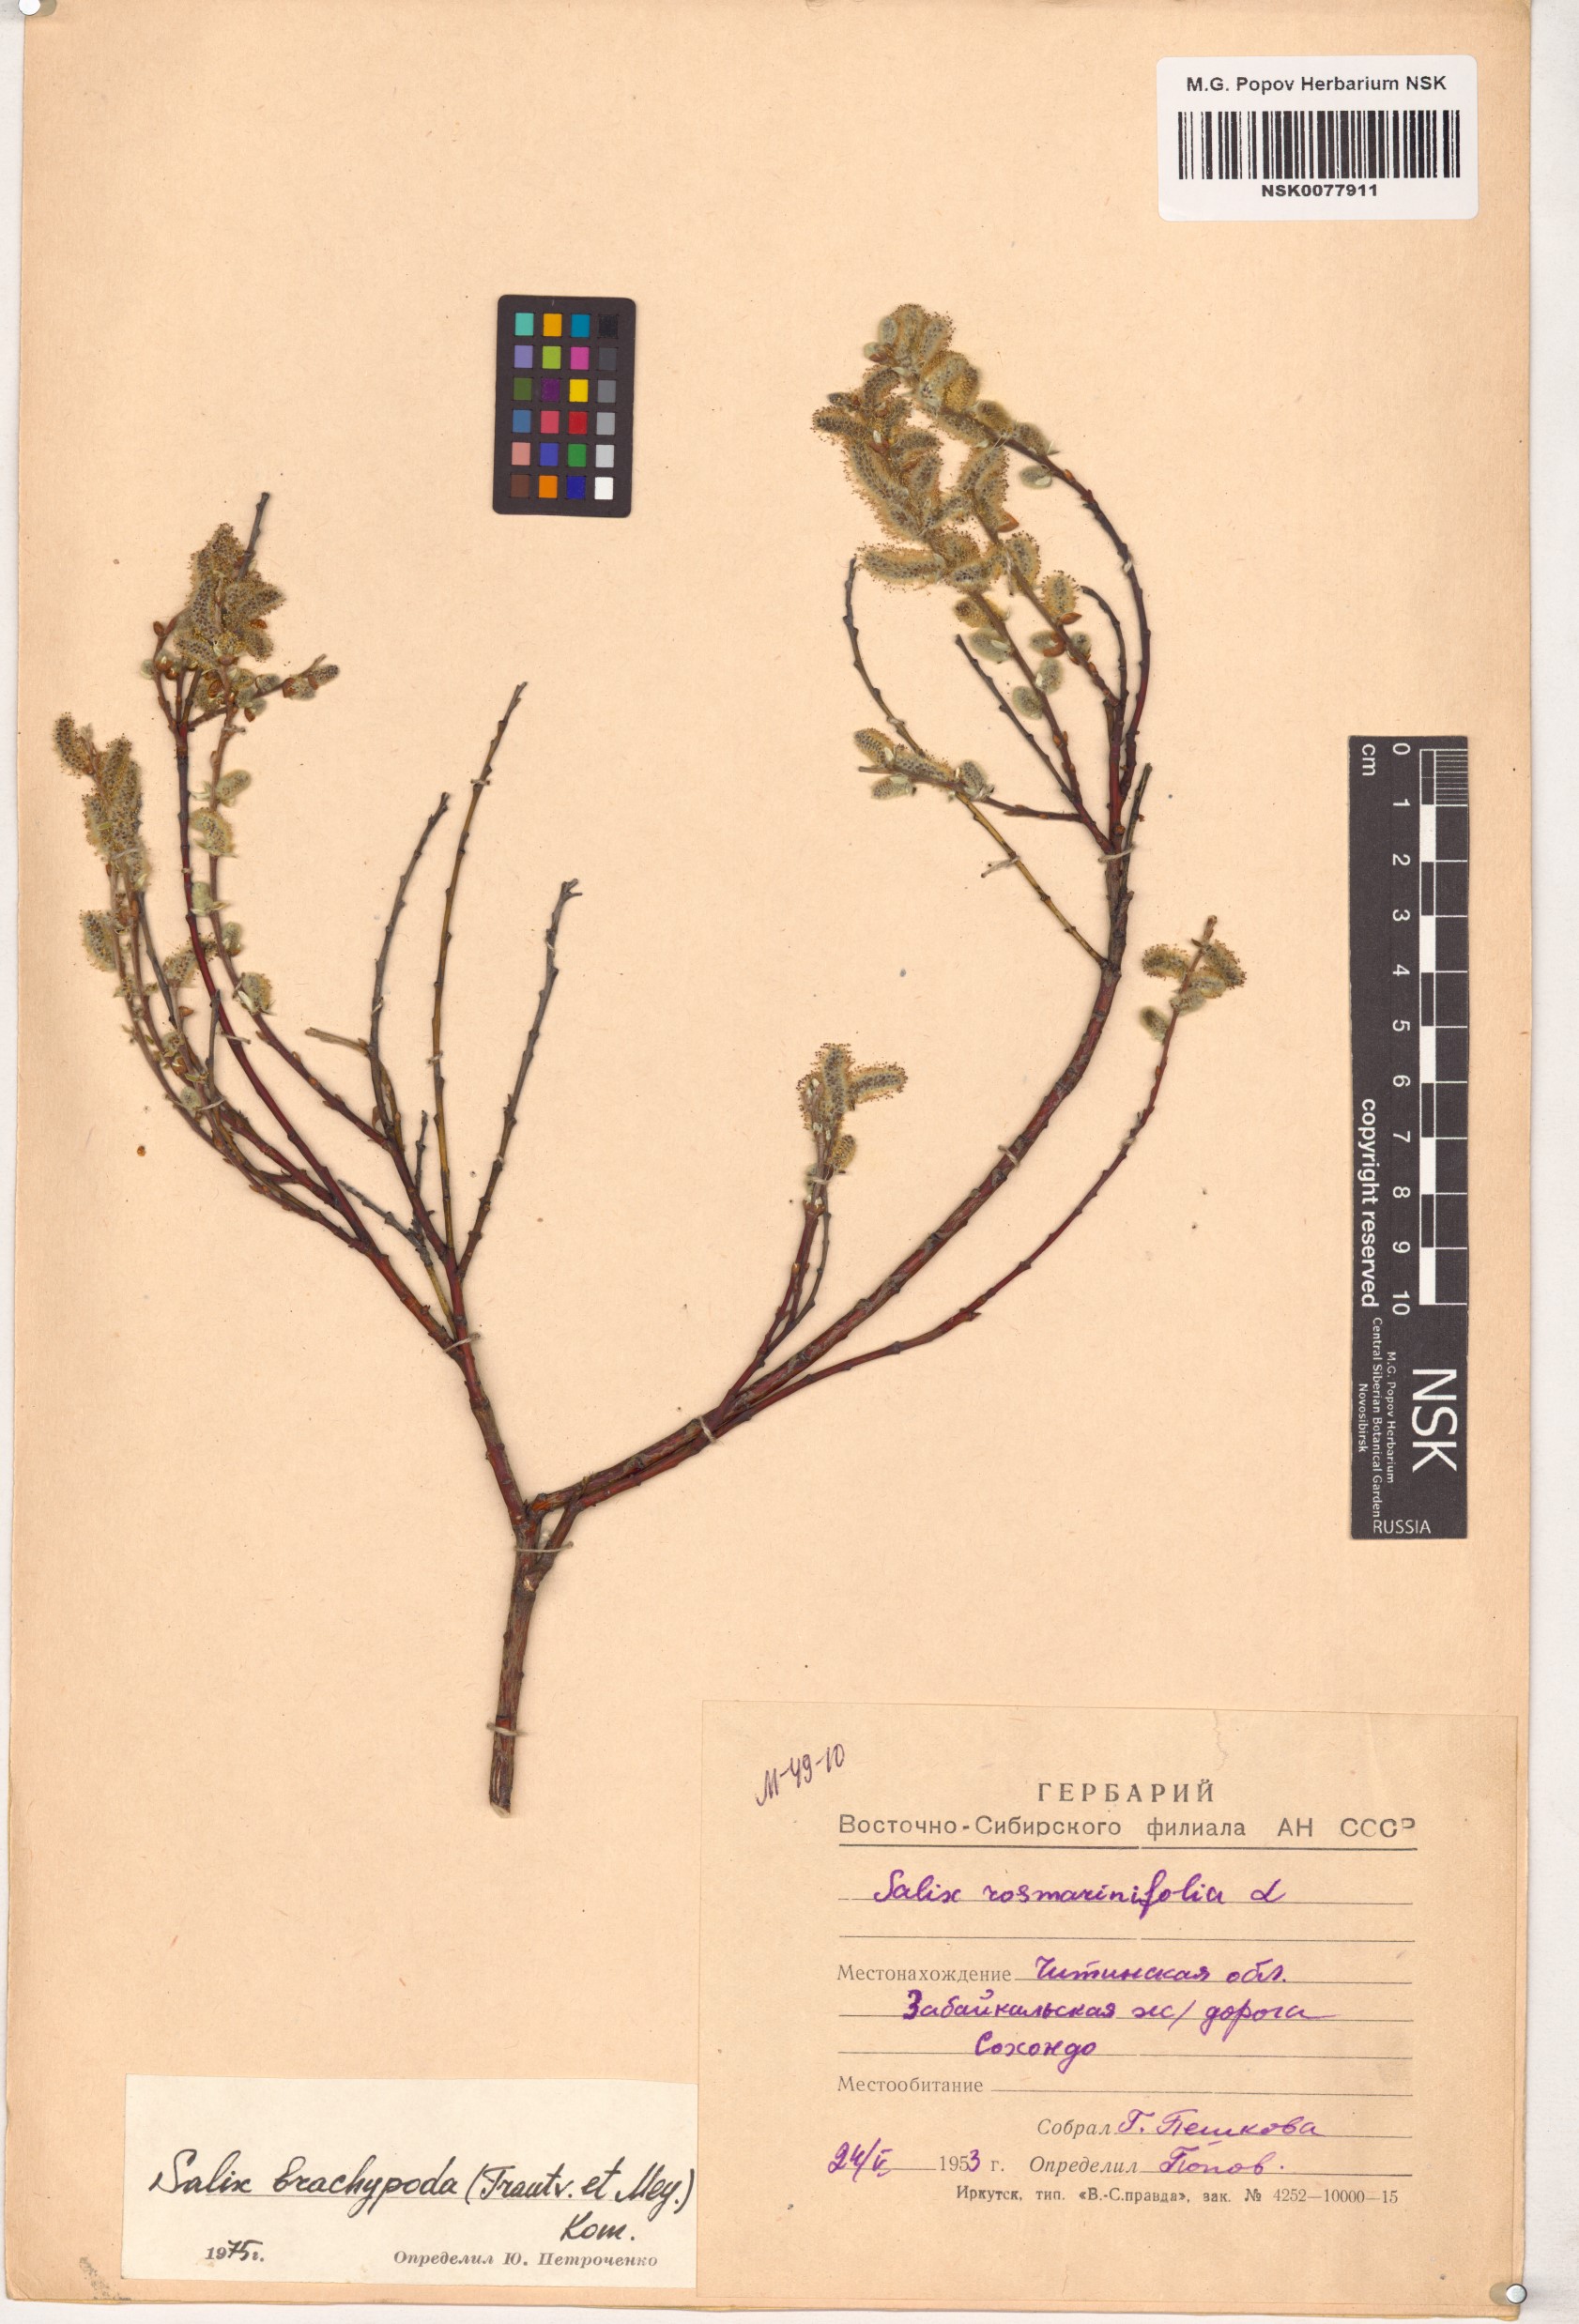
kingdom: Plantae
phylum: Tracheophyta
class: Magnoliopsida
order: Malpighiales
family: Salicaceae
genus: Salix
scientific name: Salix brachypoda
